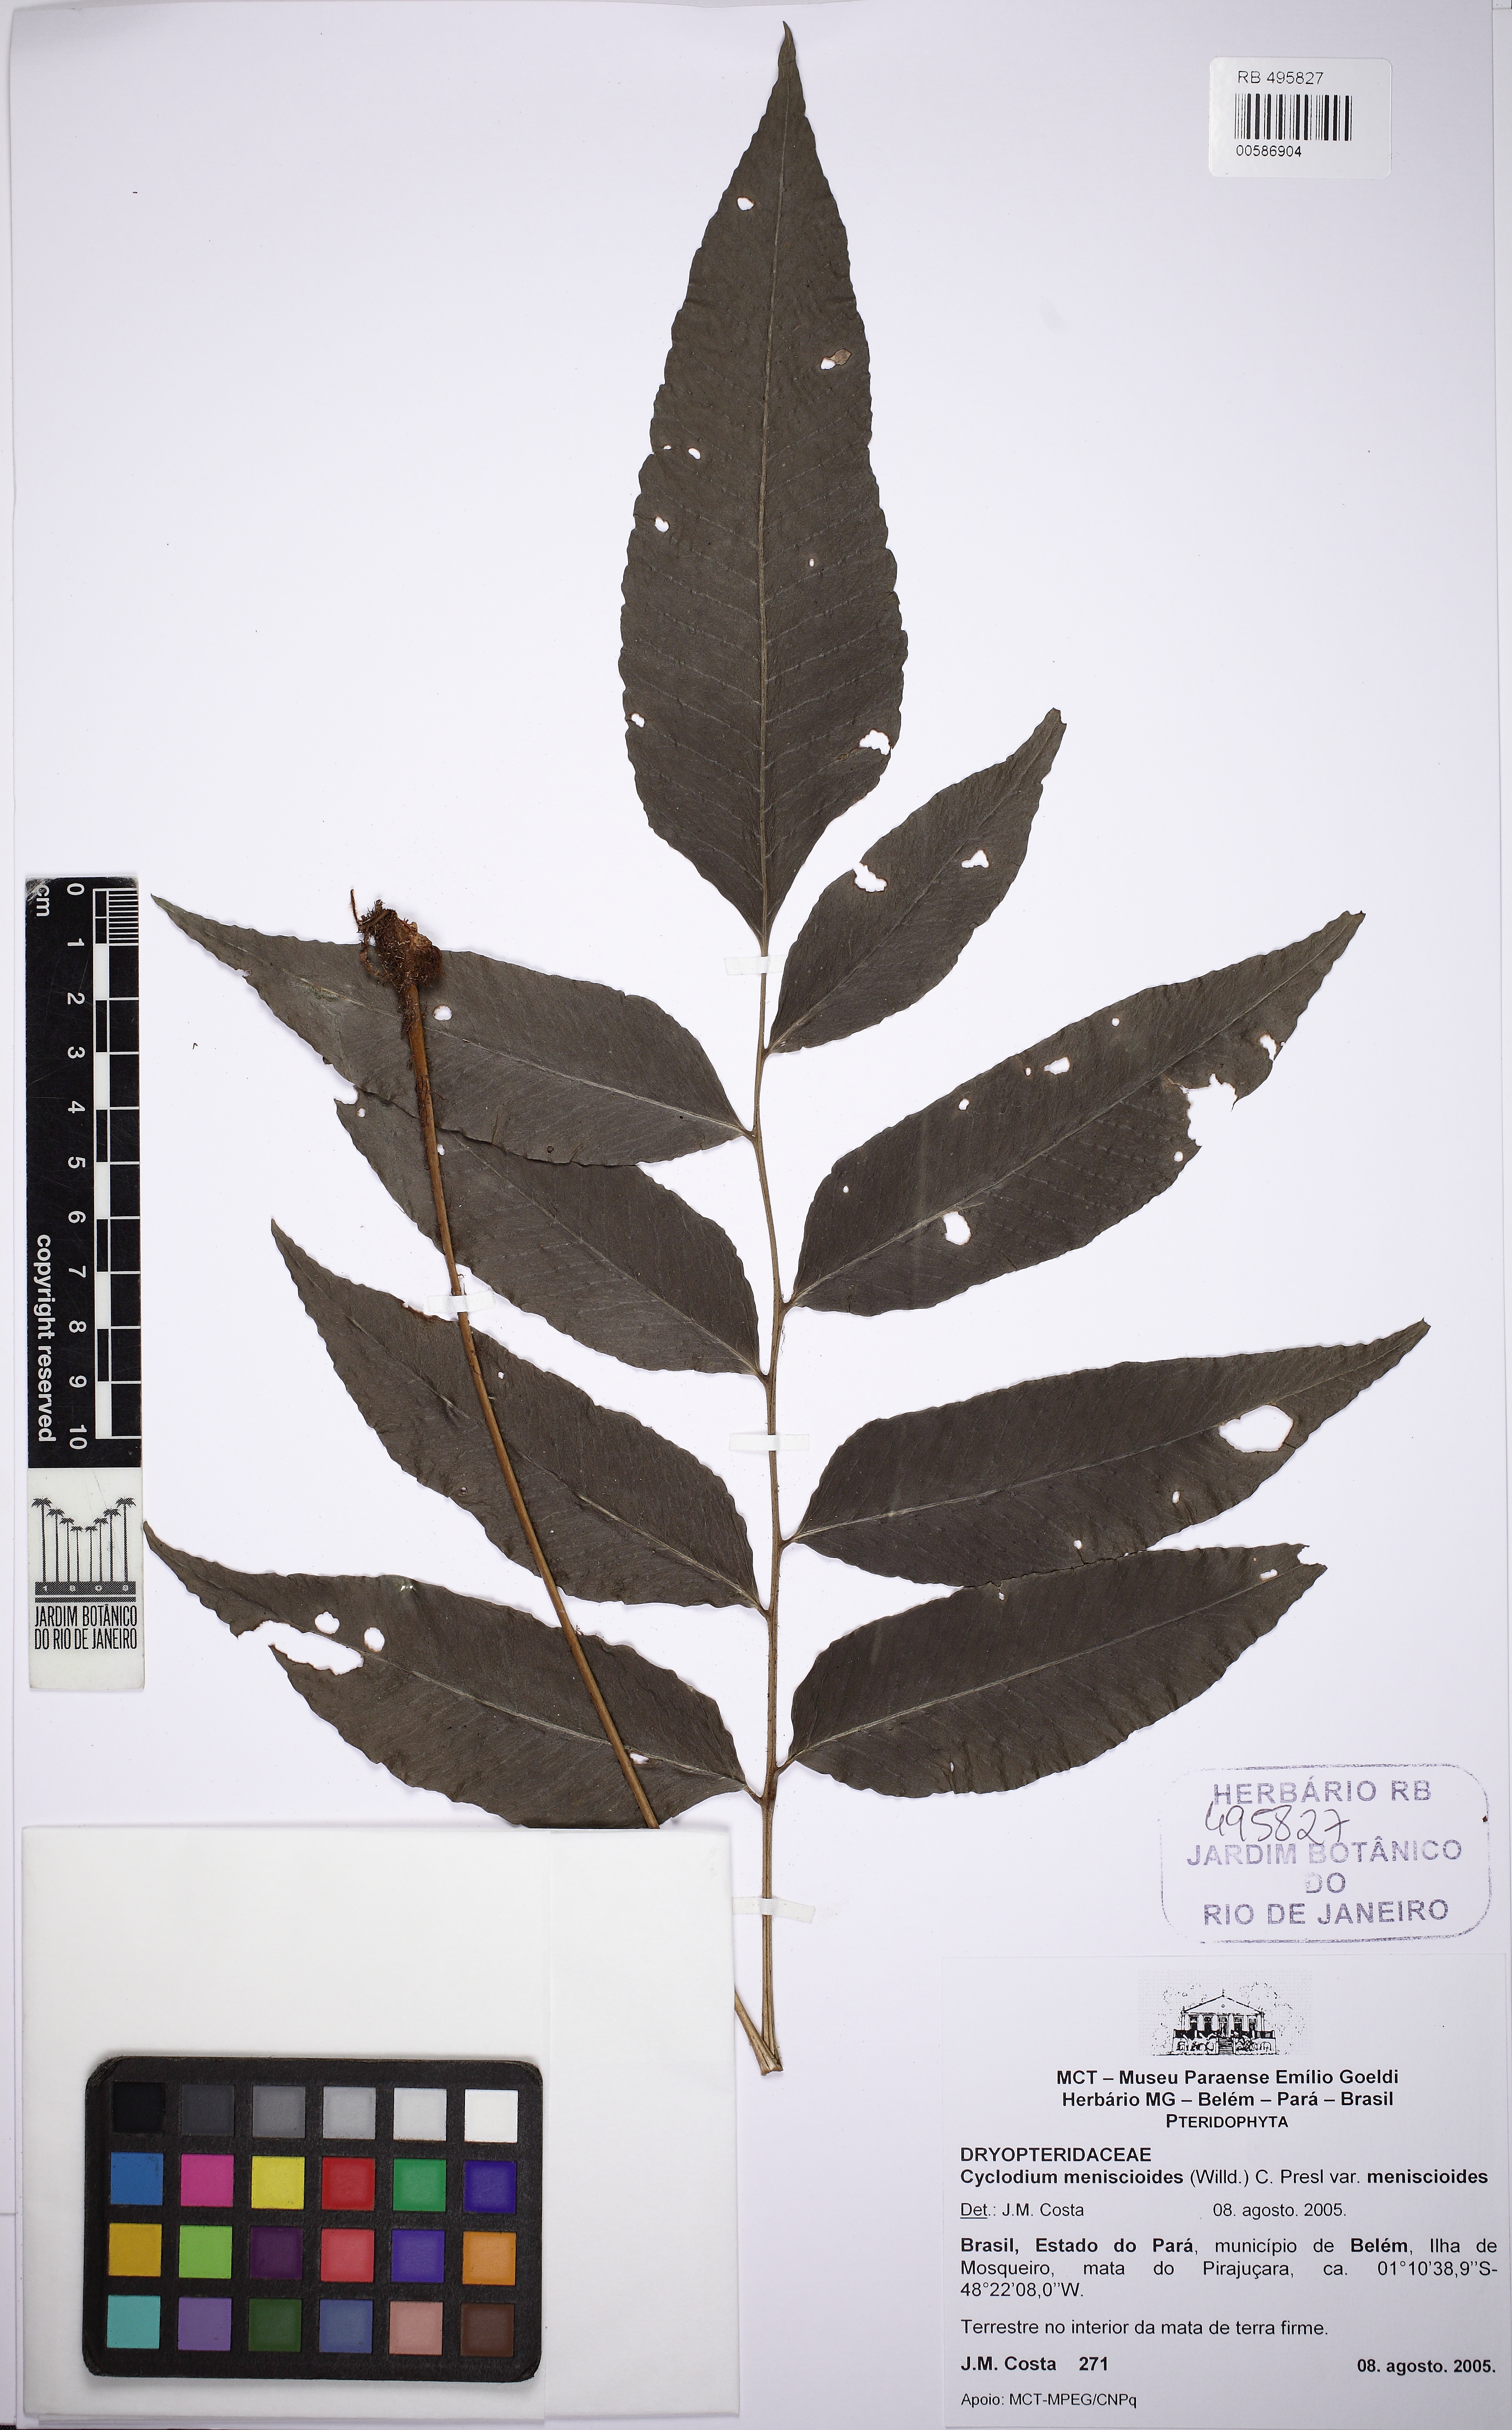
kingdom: Plantae
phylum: Tracheophyta
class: Polypodiopsida
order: Polypodiales
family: Dryopteridaceae
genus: Cyclodium
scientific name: Cyclodium meniscioides
